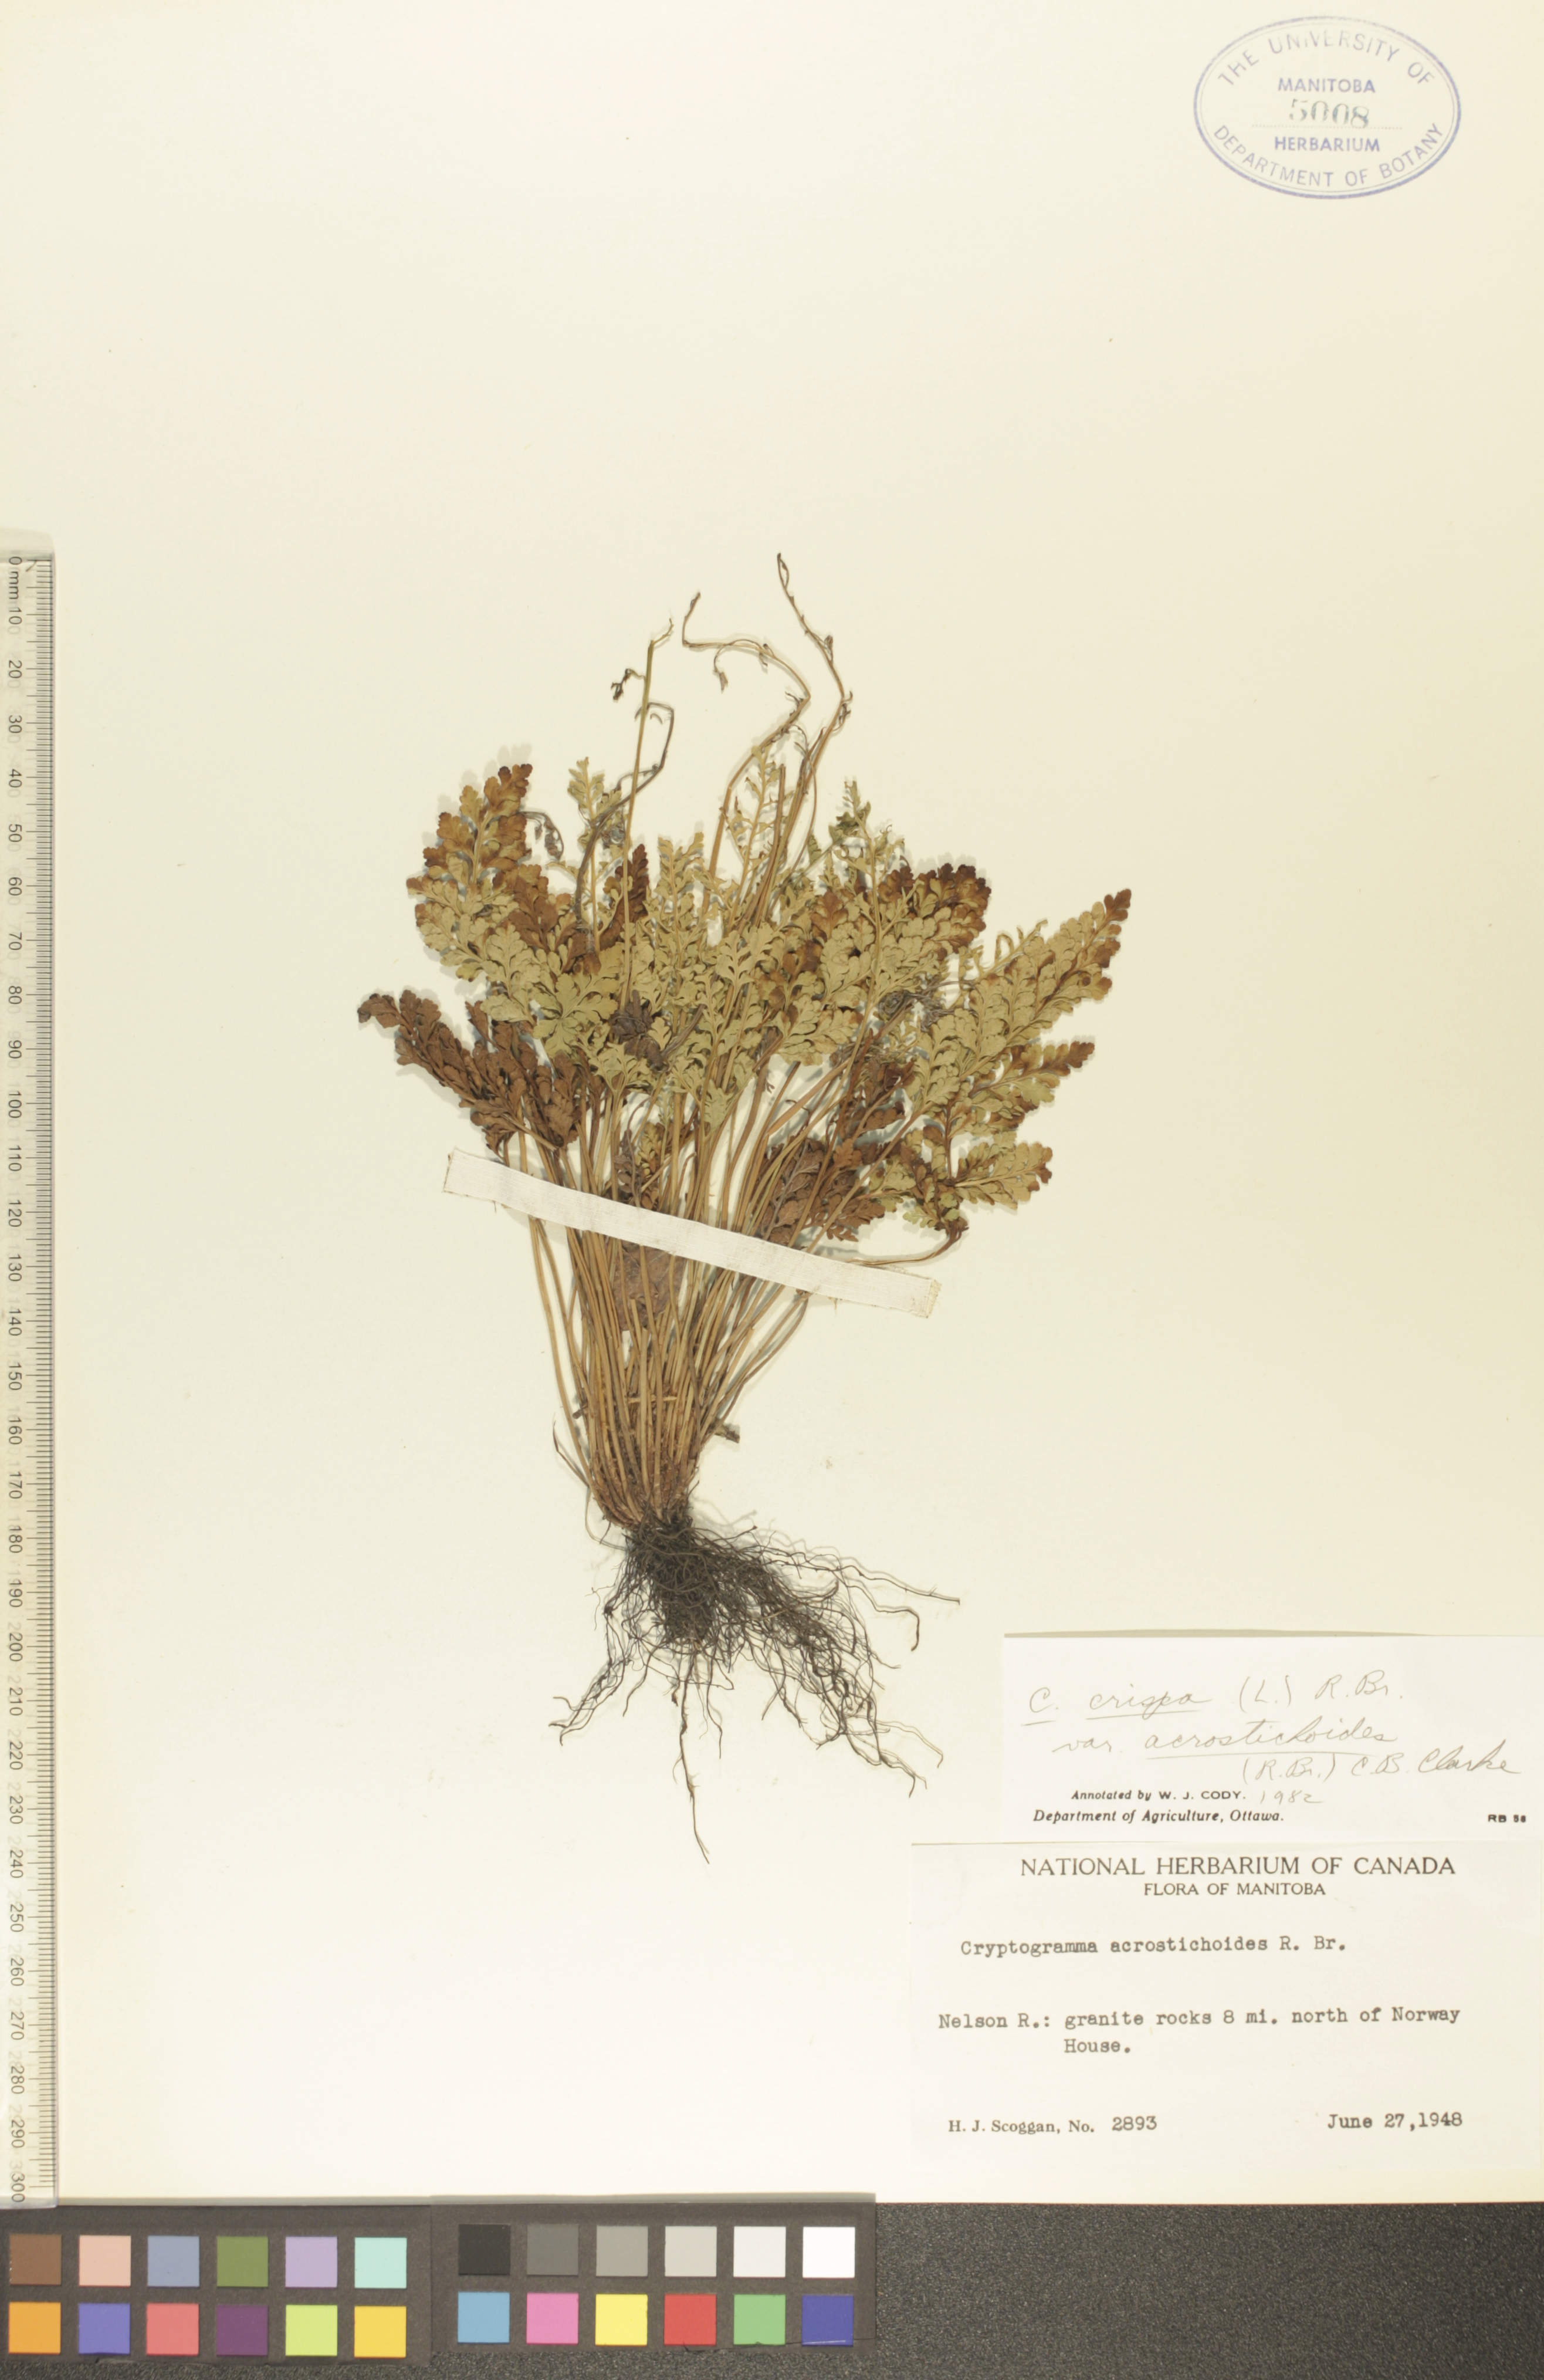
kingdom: Plantae
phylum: Tracheophyta
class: Polypodiopsida
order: Polypodiales
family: Pteridaceae
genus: Cryptogramma
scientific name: Cryptogramma acrostichoides
